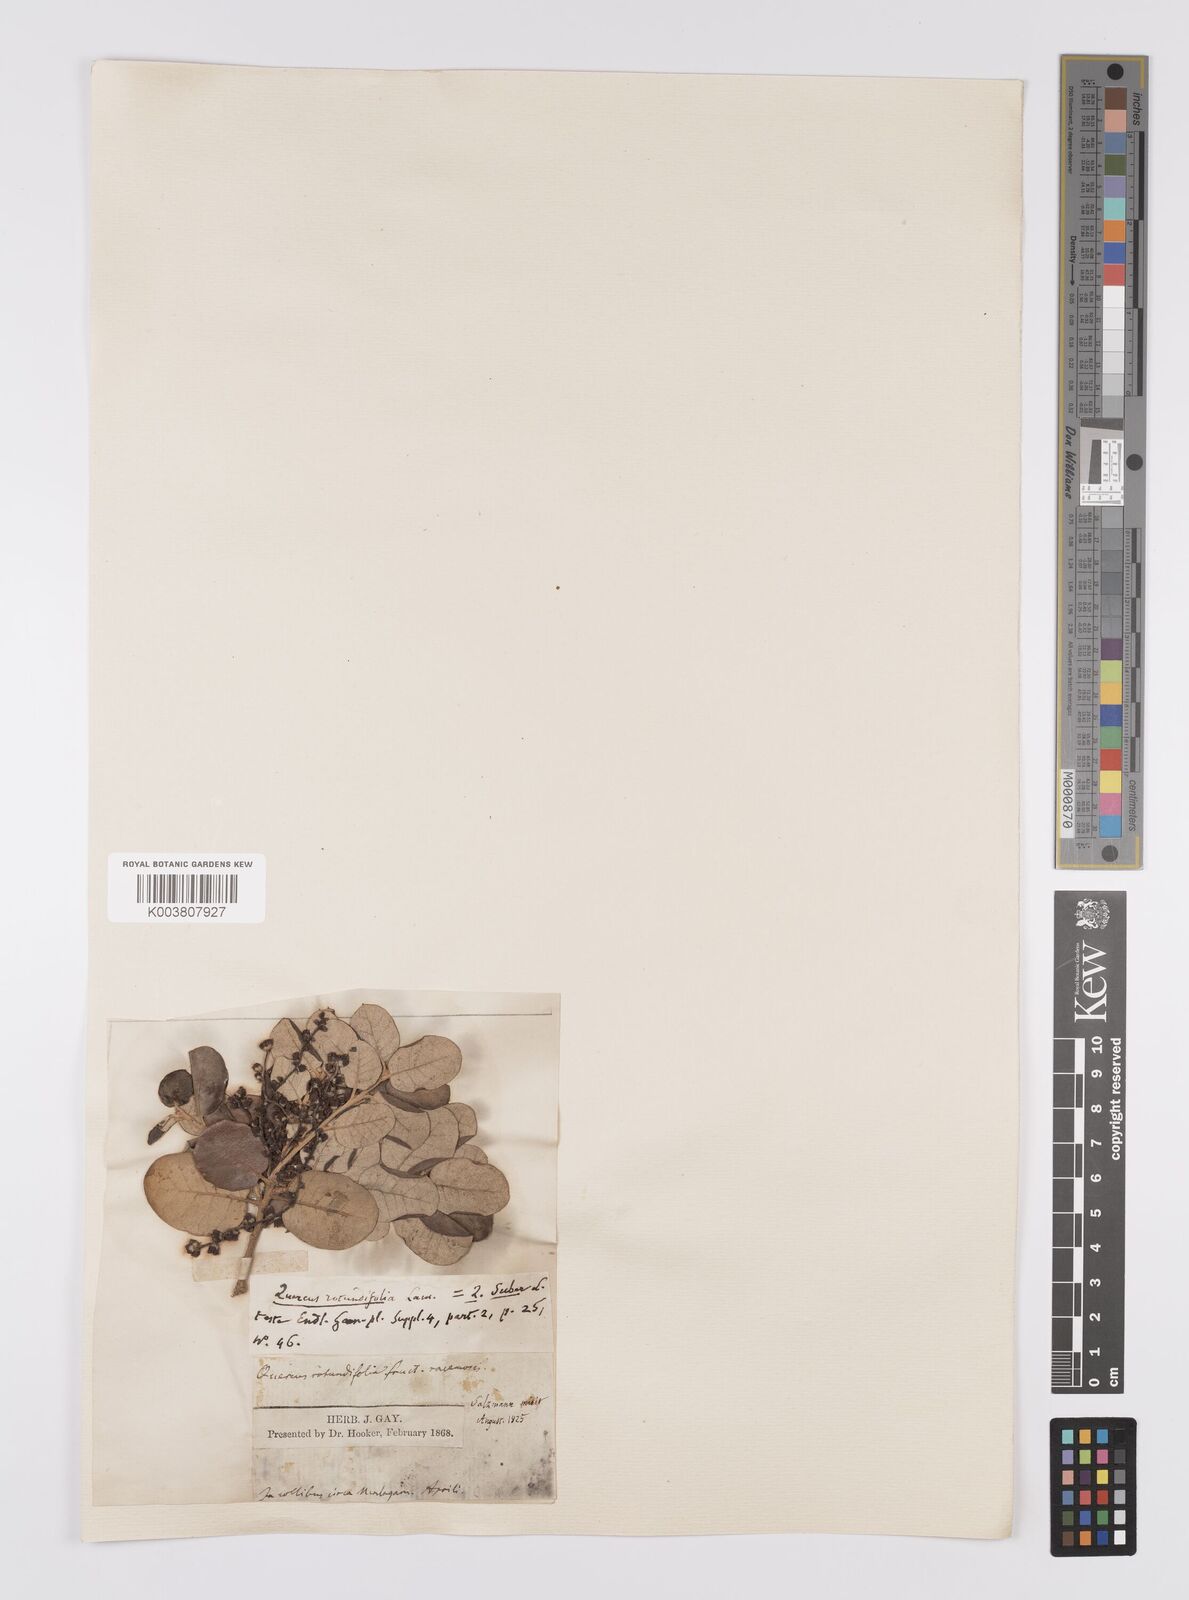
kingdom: Plantae
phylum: Tracheophyta
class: Magnoliopsida
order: Fagales
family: Fagaceae
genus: Quercus
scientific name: Quercus suber
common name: Cork oak
